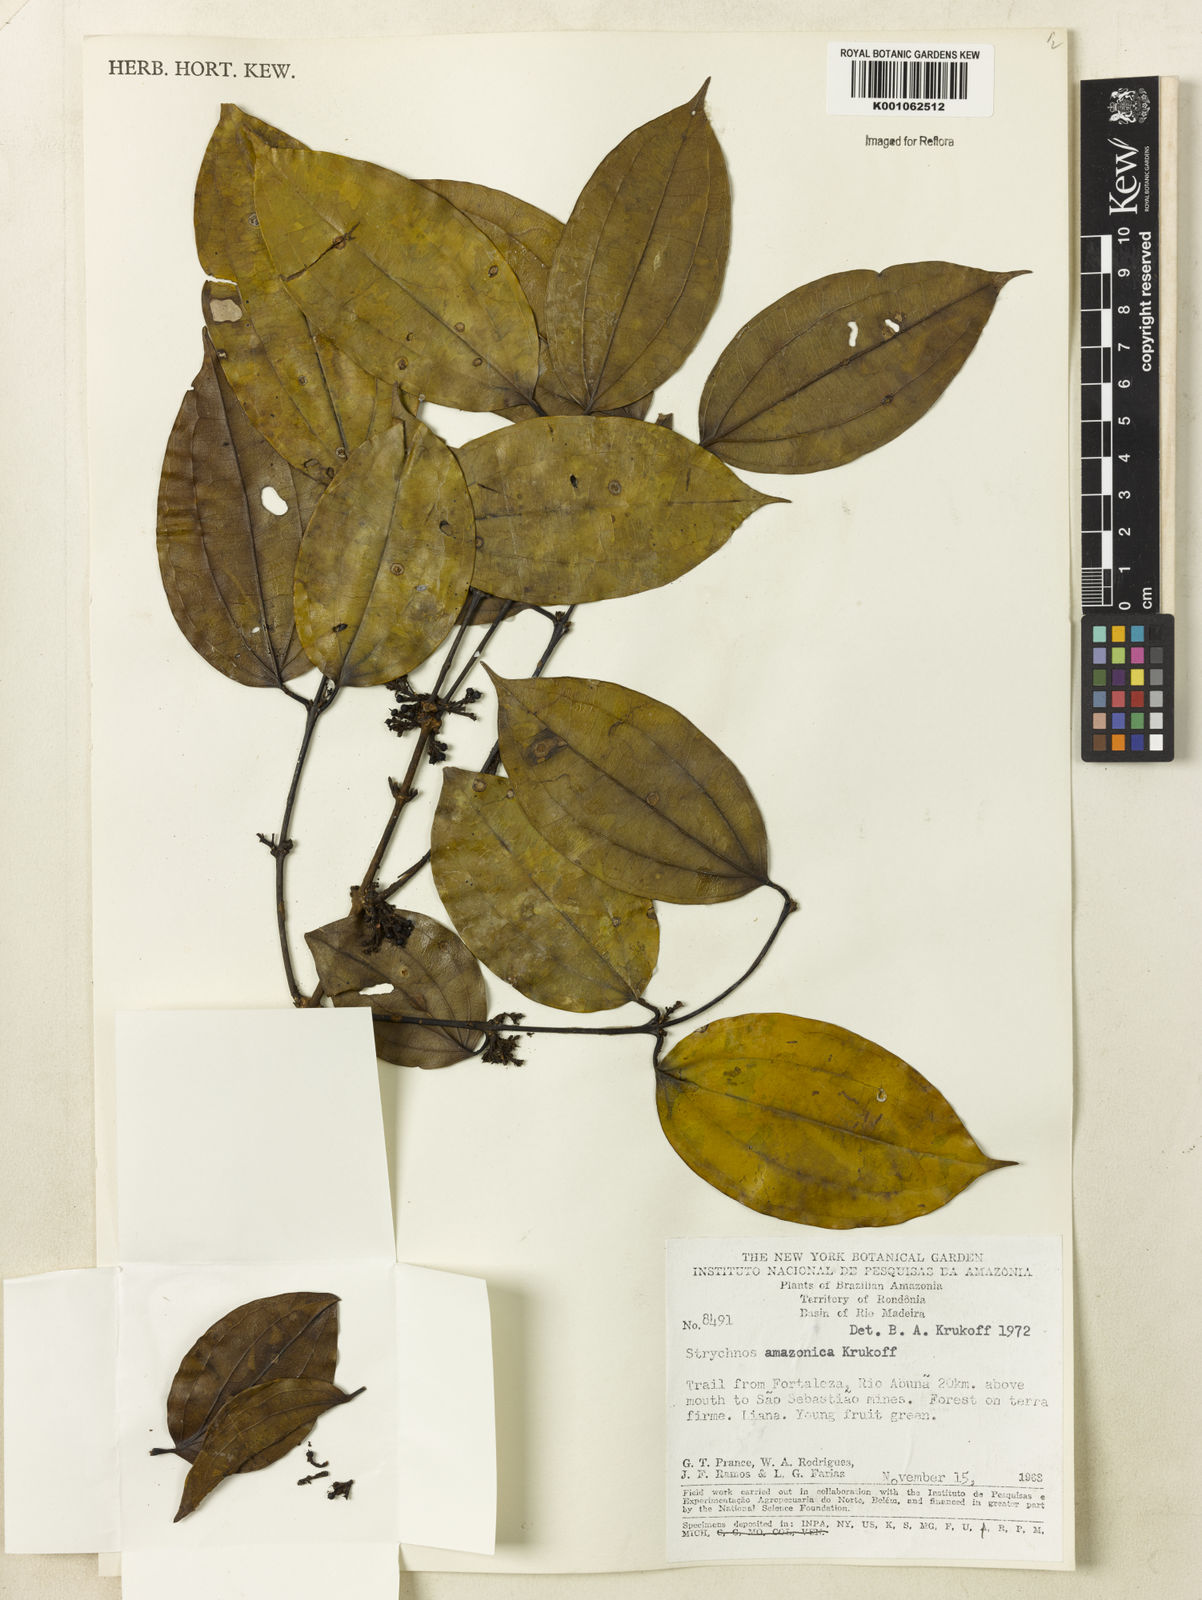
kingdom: Plantae
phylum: Tracheophyta
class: Magnoliopsida
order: Gentianales
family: Loganiaceae
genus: Strychnos
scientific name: Strychnos amazonica
